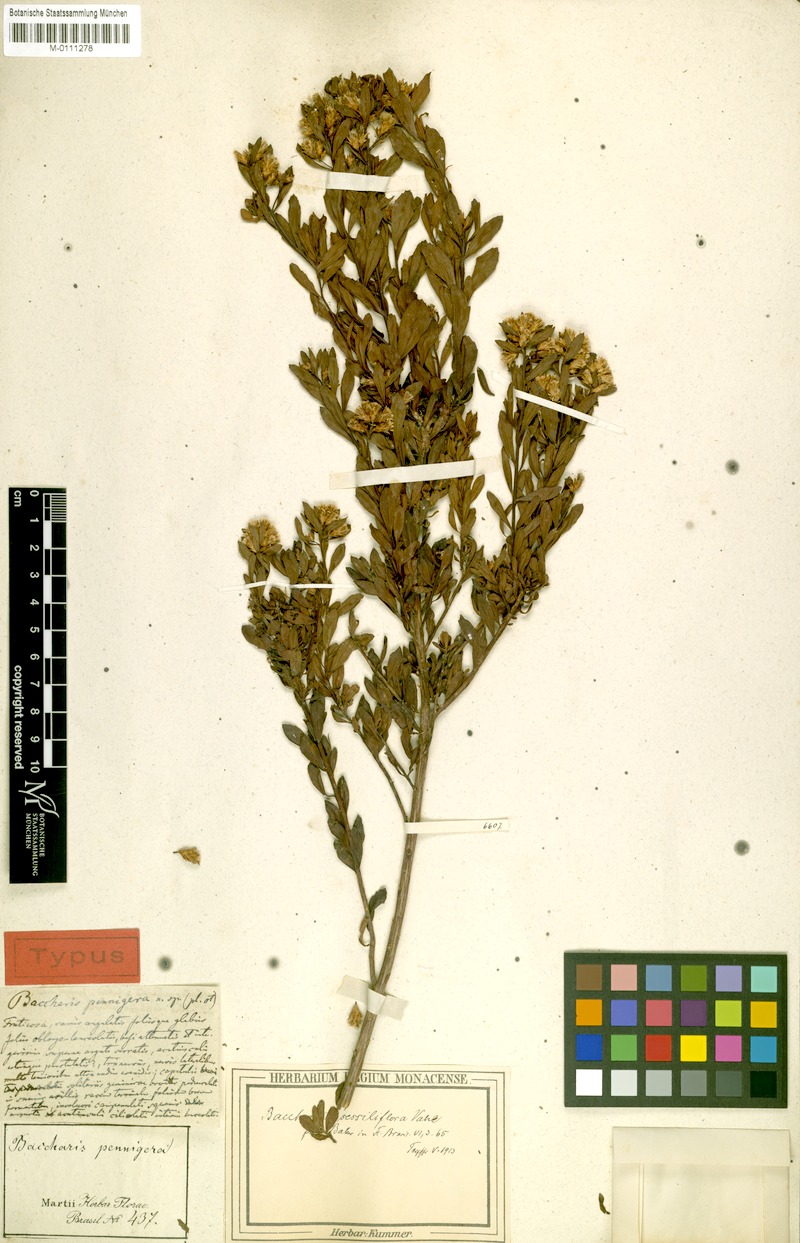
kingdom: Plantae
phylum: Tracheophyta
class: Magnoliopsida
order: Asterales
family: Asteraceae
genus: Baccharis
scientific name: Baccharis brevifolia
